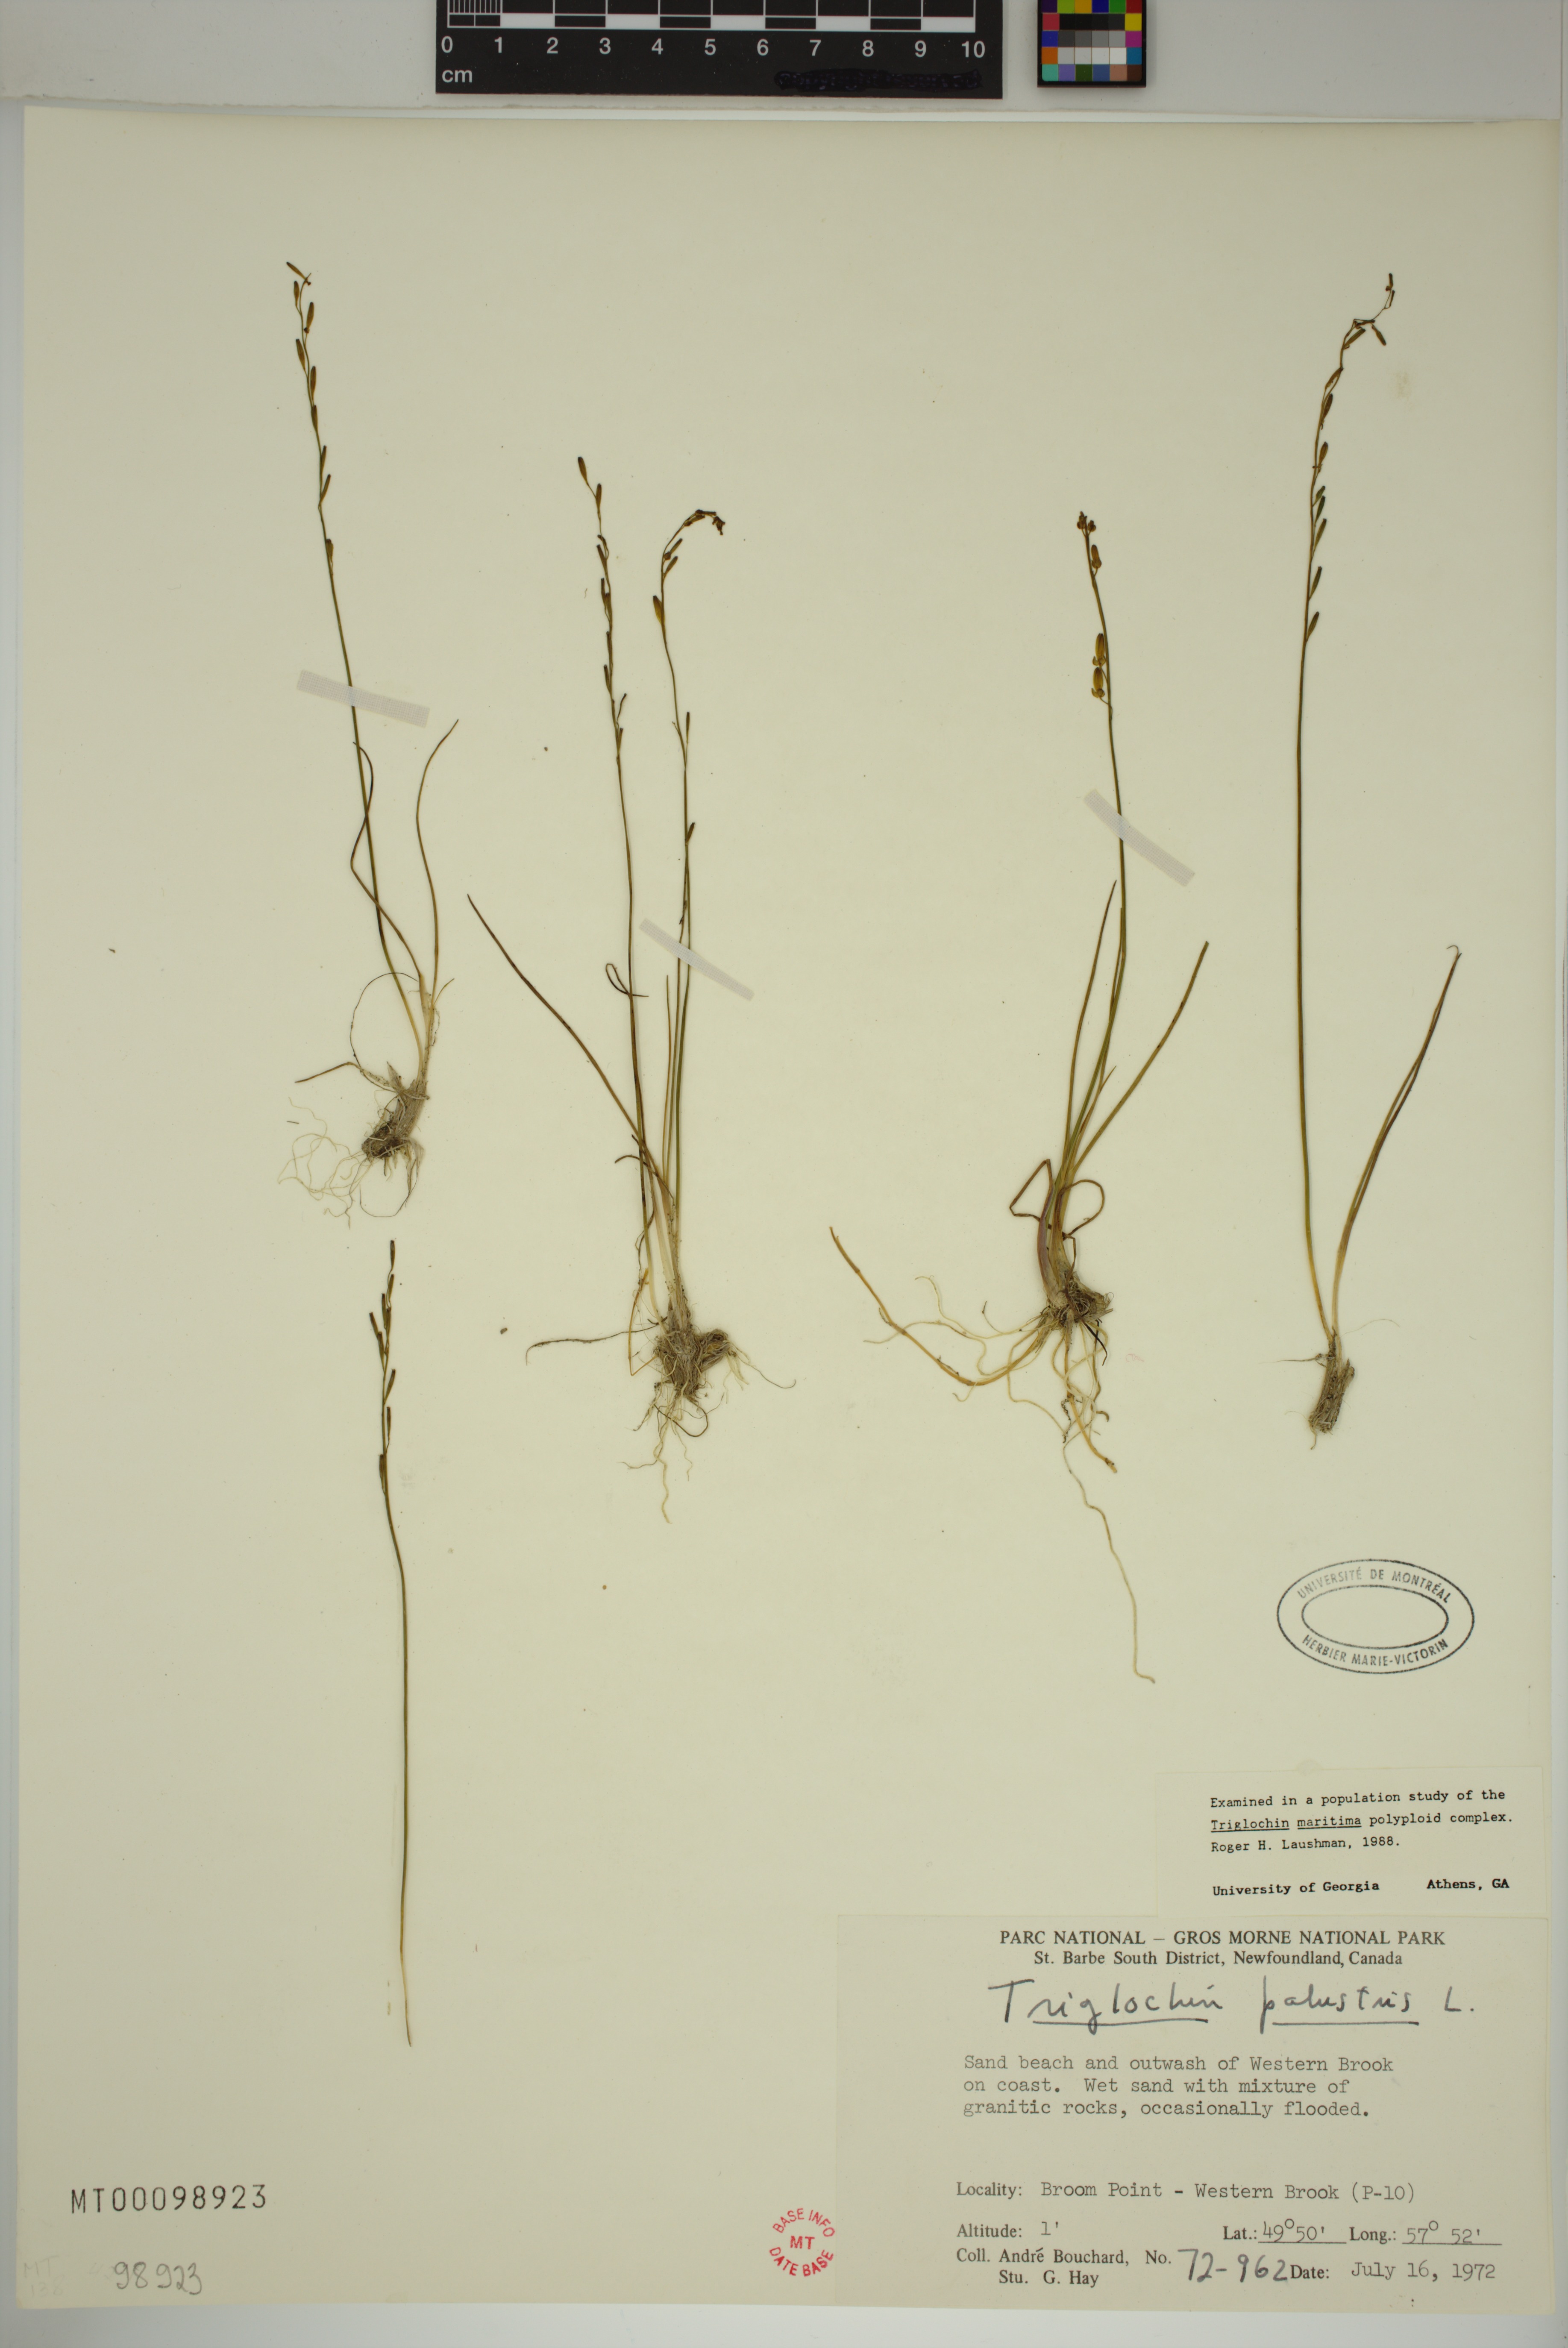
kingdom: Plantae
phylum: Tracheophyta
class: Liliopsida
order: Alismatales
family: Juncaginaceae
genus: Triglochin
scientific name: Triglochin palustris
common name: Marsh arrowgrass
